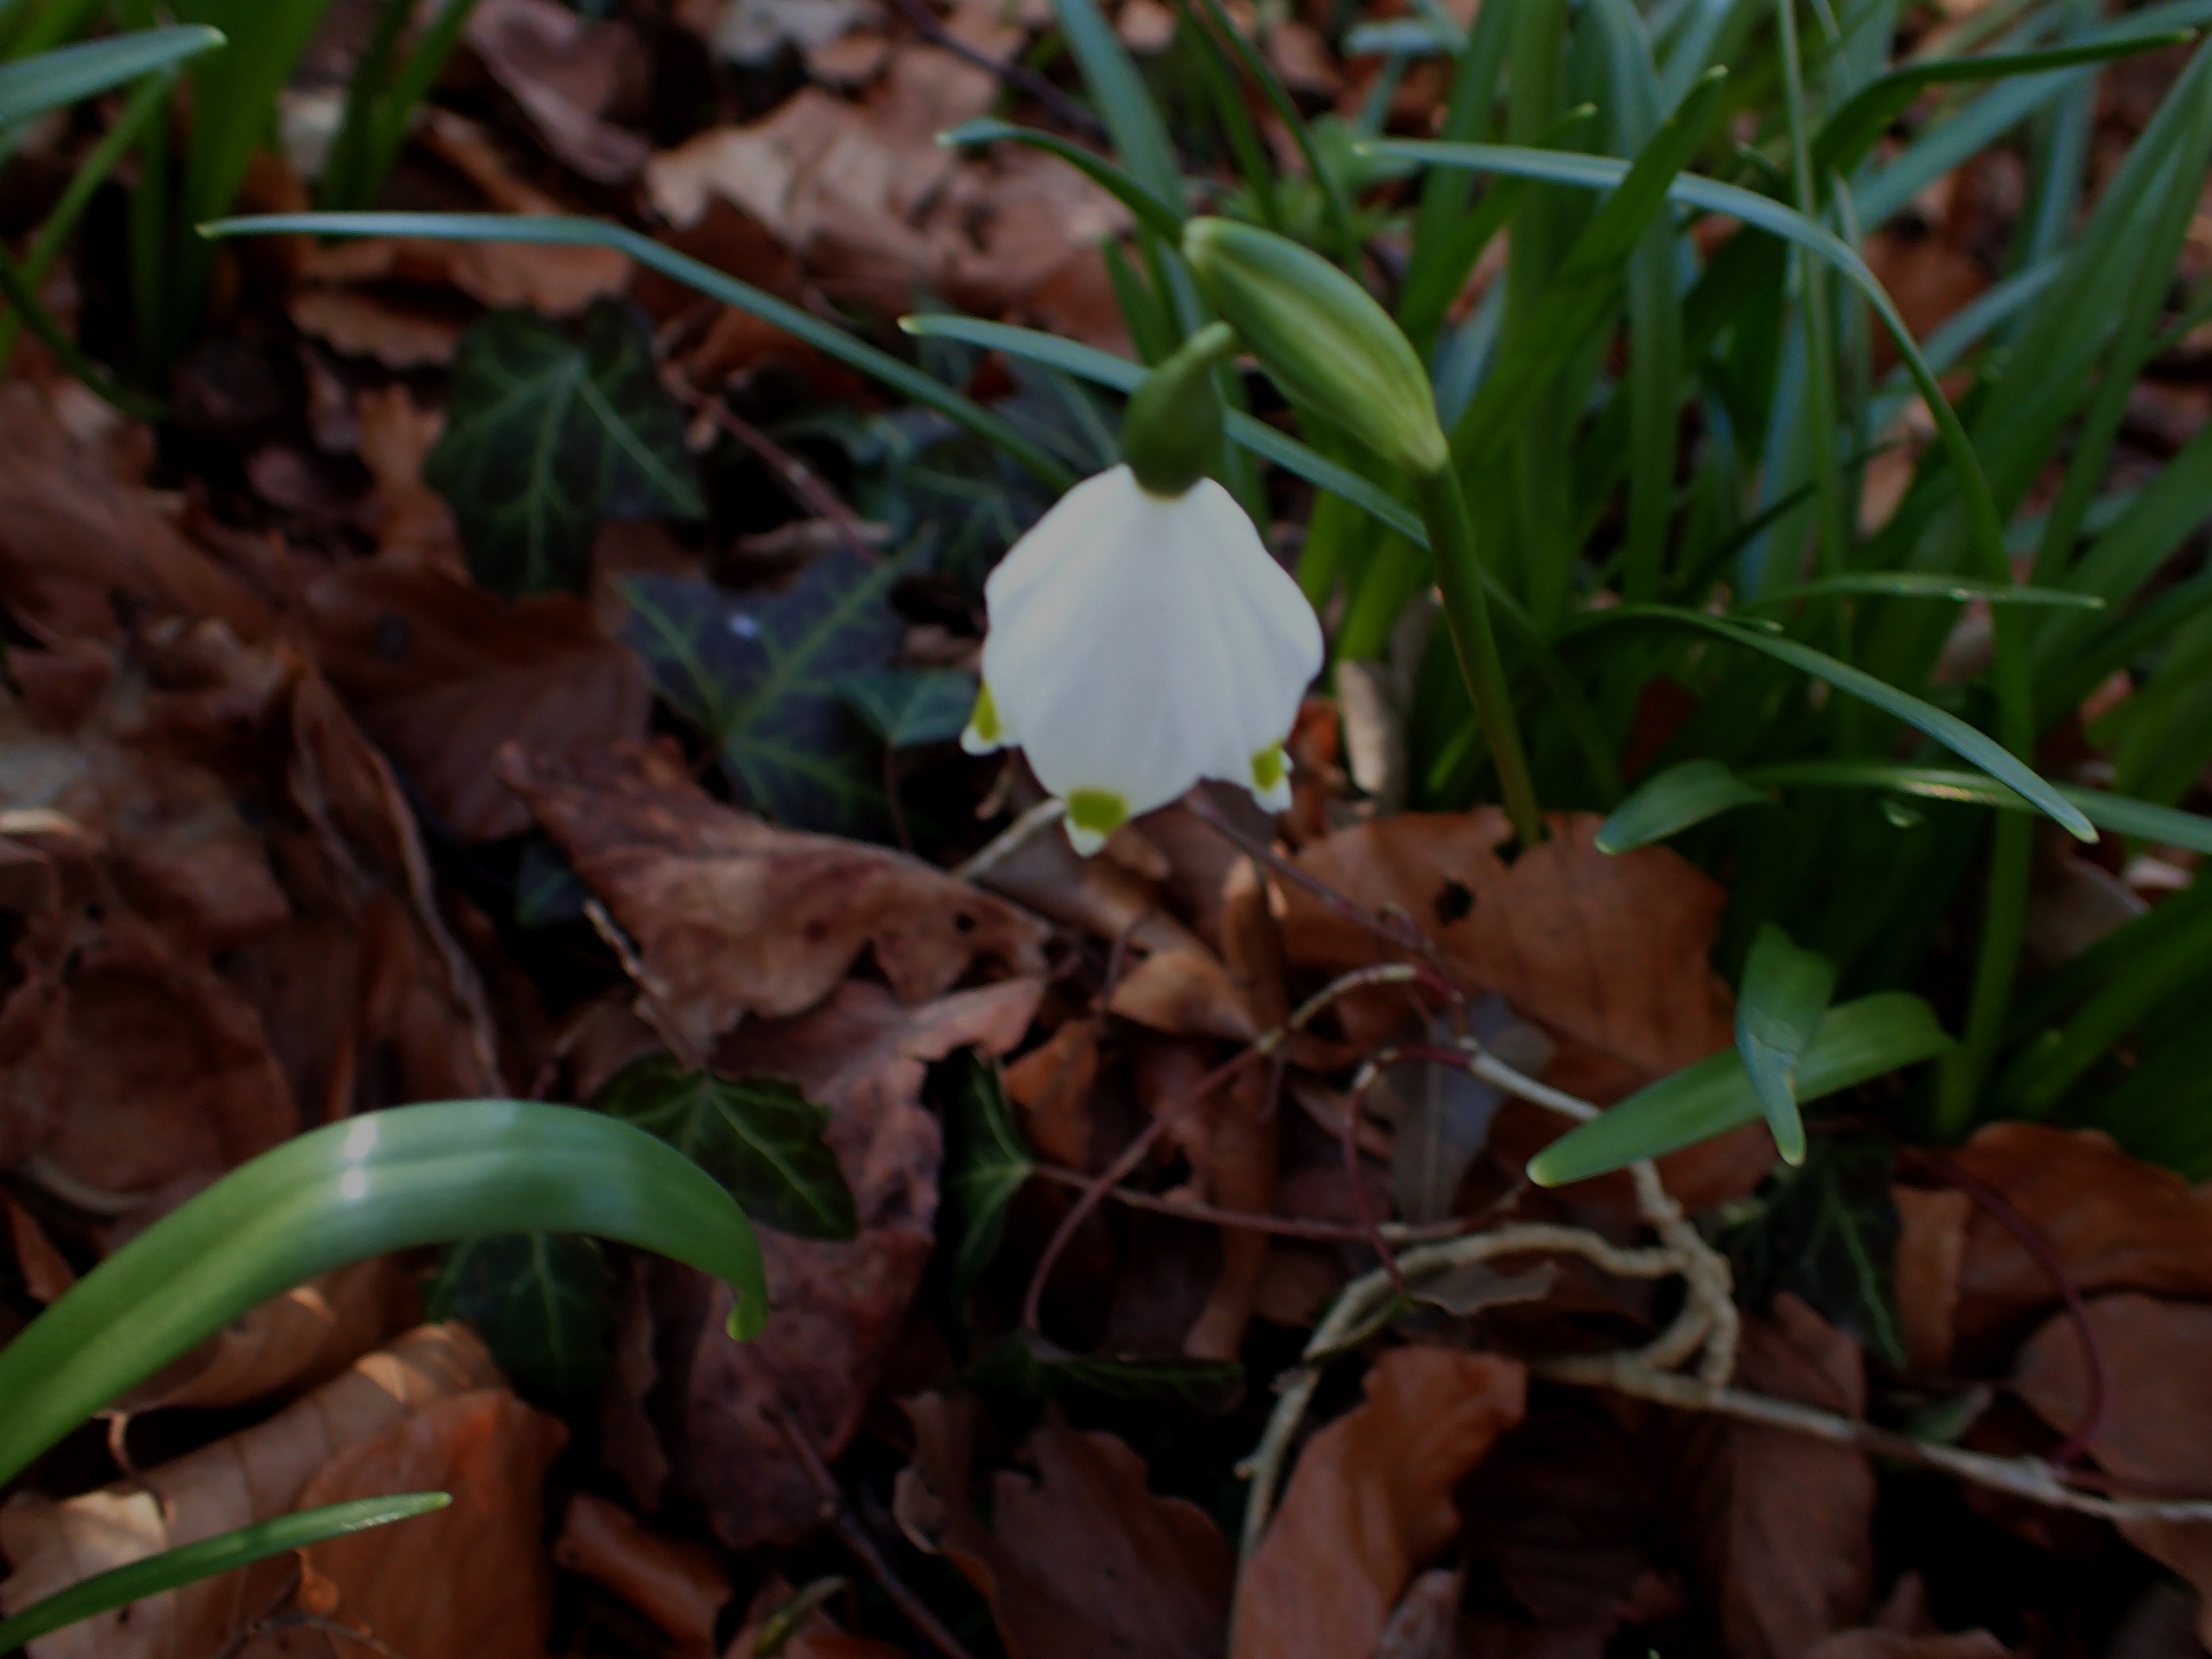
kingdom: Plantae
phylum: Tracheophyta
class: Liliopsida
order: Asparagales
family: Amaryllidaceae
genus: Leucojum
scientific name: Leucojum vernum
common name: Dorthealilje
